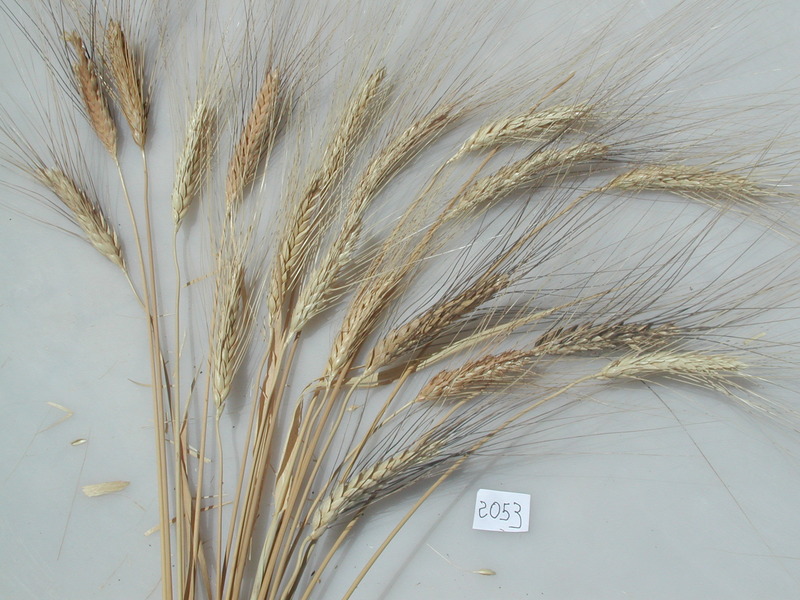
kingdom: Plantae
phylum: Tracheophyta
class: Liliopsida
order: Poales
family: Poaceae
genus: Triticum
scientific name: Triticum turgidum
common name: Wheat
